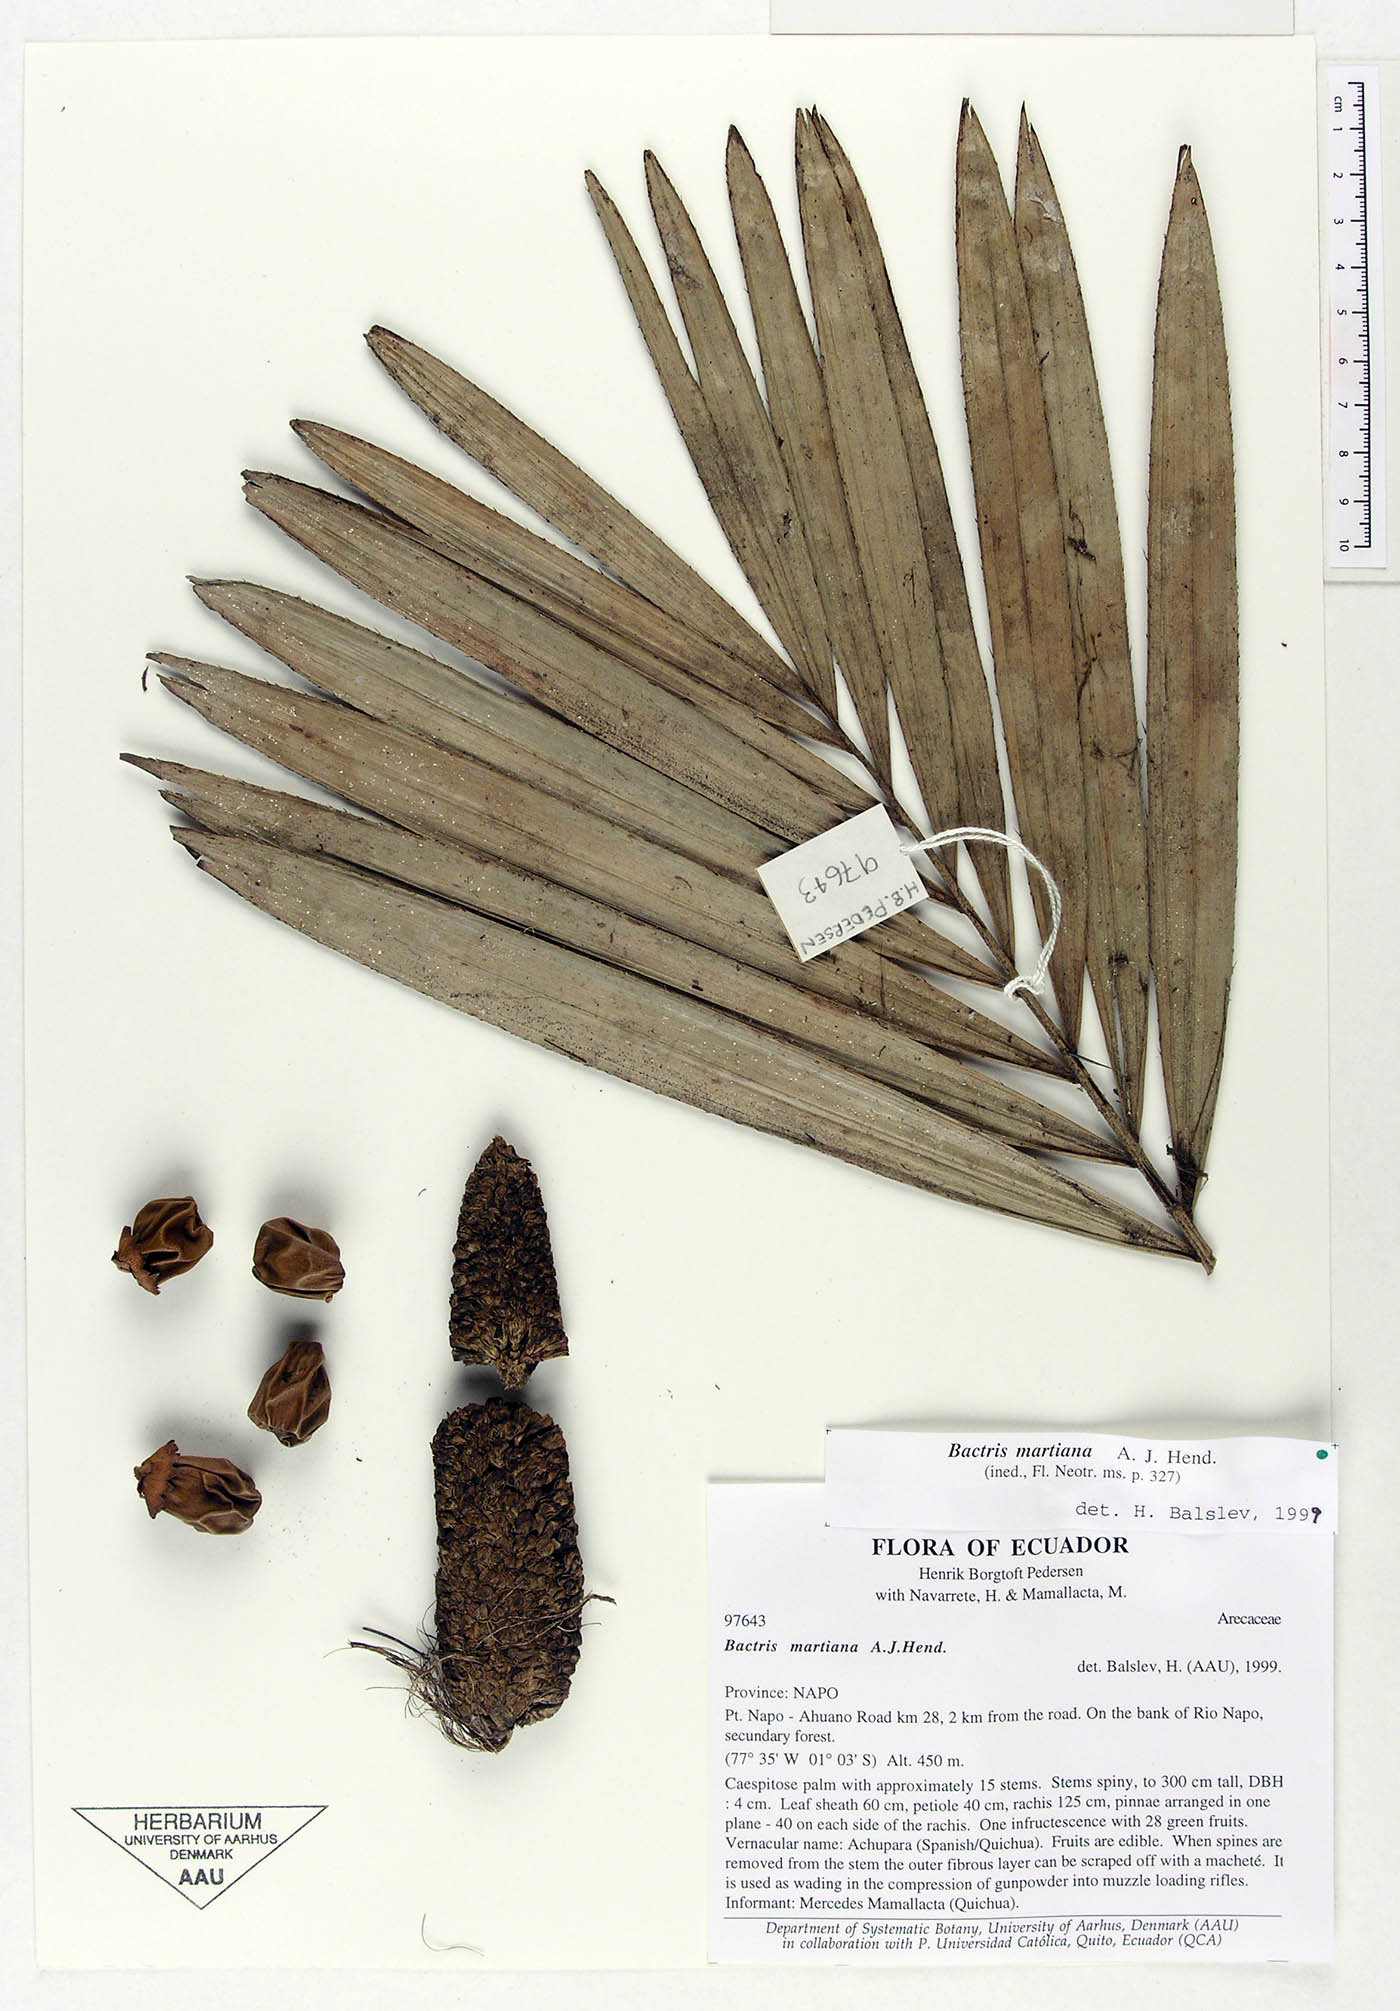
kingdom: Plantae
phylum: Tracheophyta
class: Liliopsida
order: Arecales
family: Arecaceae
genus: Bactris
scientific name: Bactris martiana
